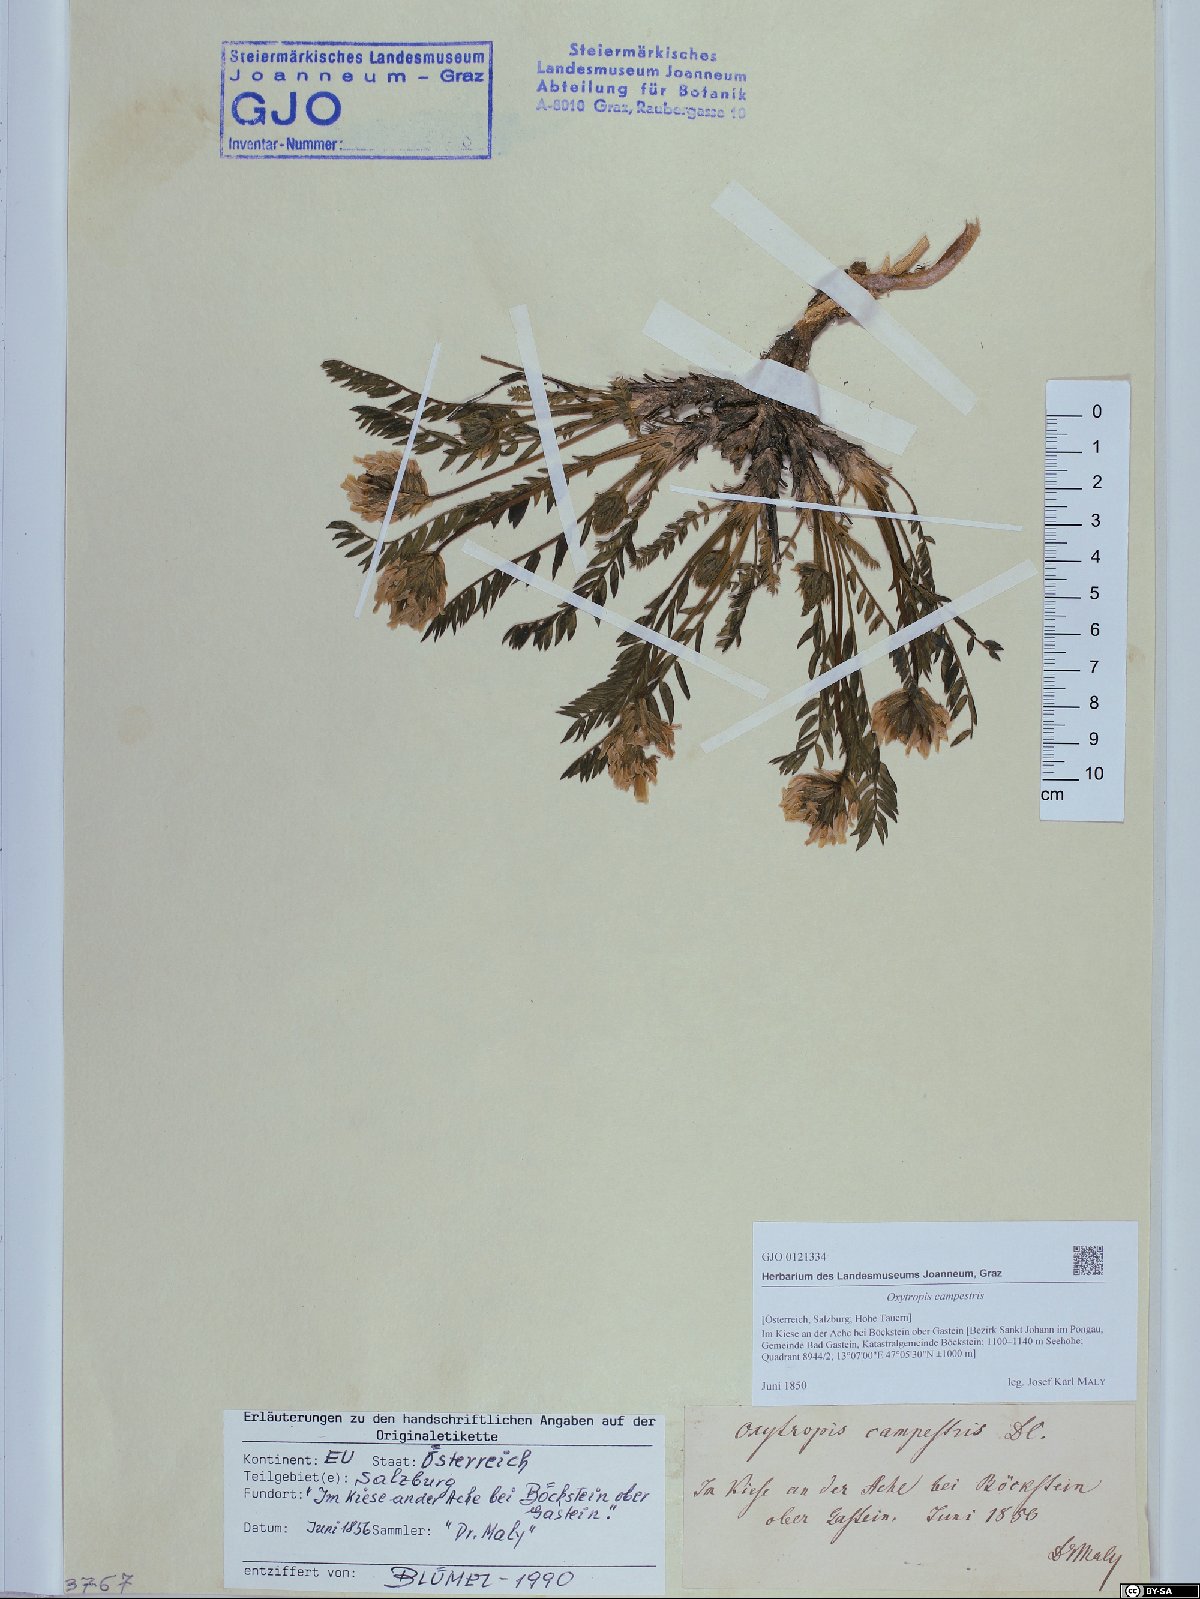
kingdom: Plantae
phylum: Tracheophyta
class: Magnoliopsida
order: Fabales
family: Fabaceae
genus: Oxytropis
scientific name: Oxytropis campestris
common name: Field locoweed
